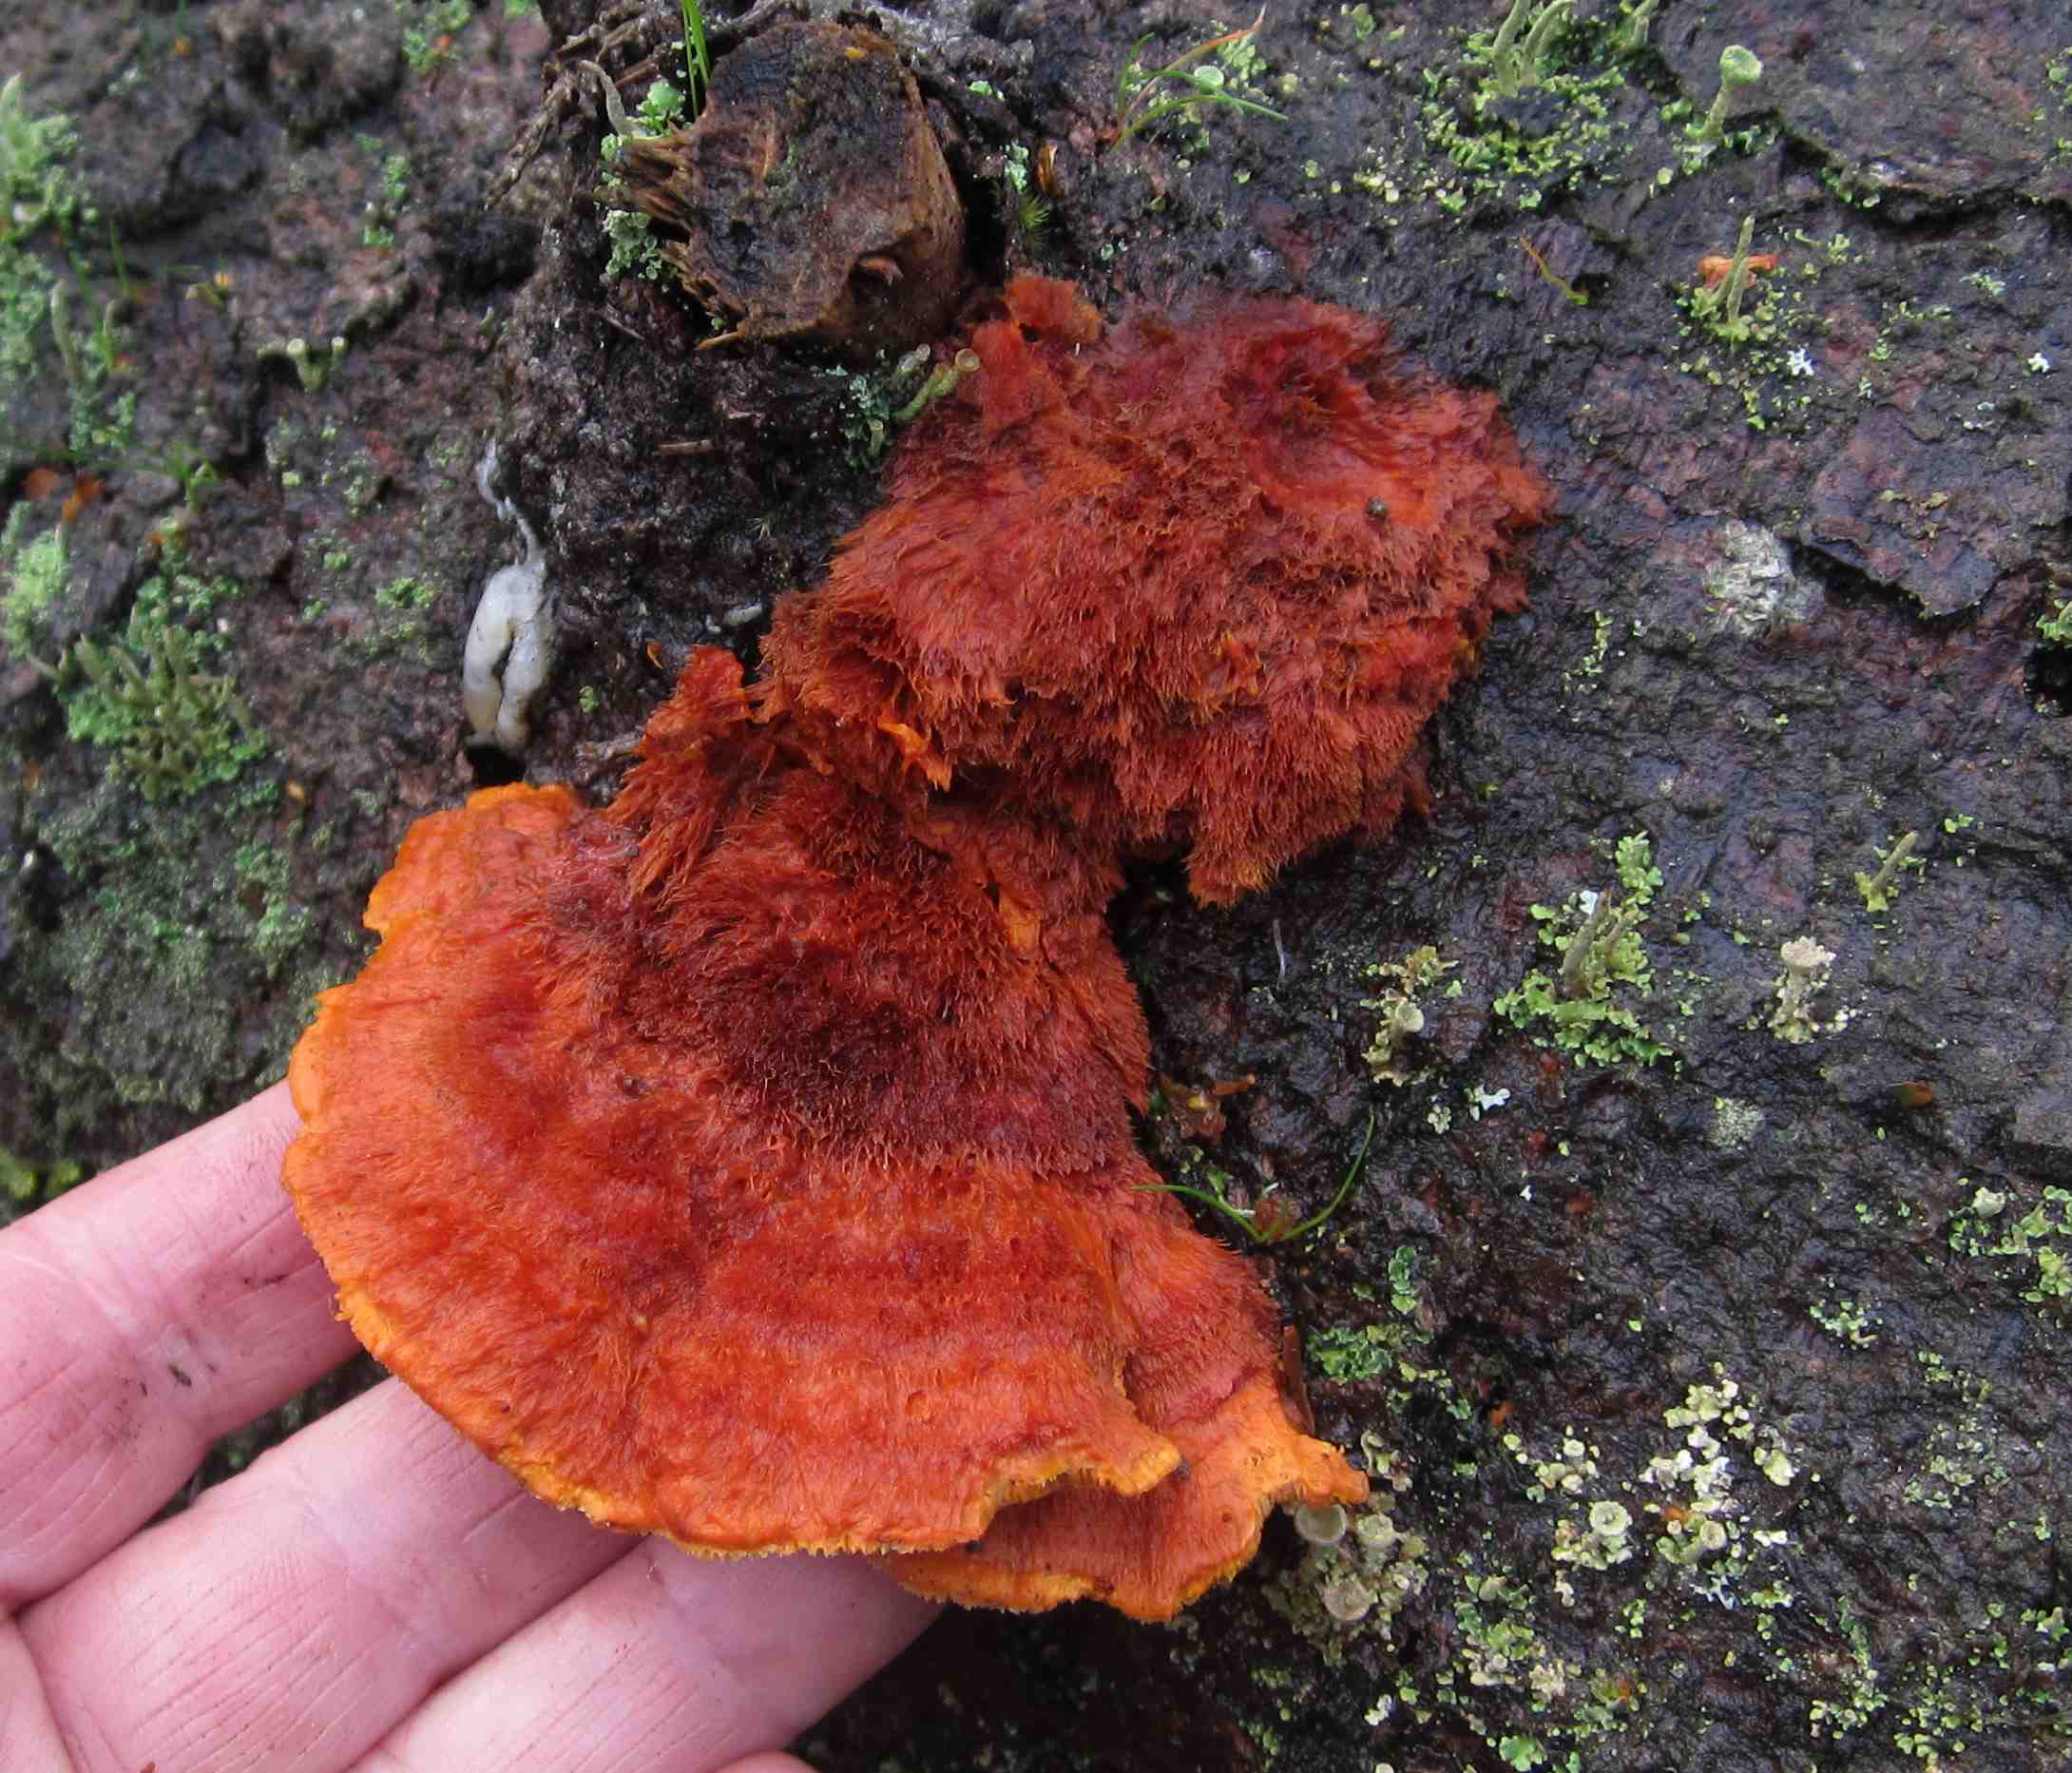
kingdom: Fungi
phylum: Basidiomycota
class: Agaricomycetes
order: Polyporales
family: Pycnoporellaceae
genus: Pycnoporellus
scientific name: Pycnoporellus fulgens
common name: flammeporesvamp
